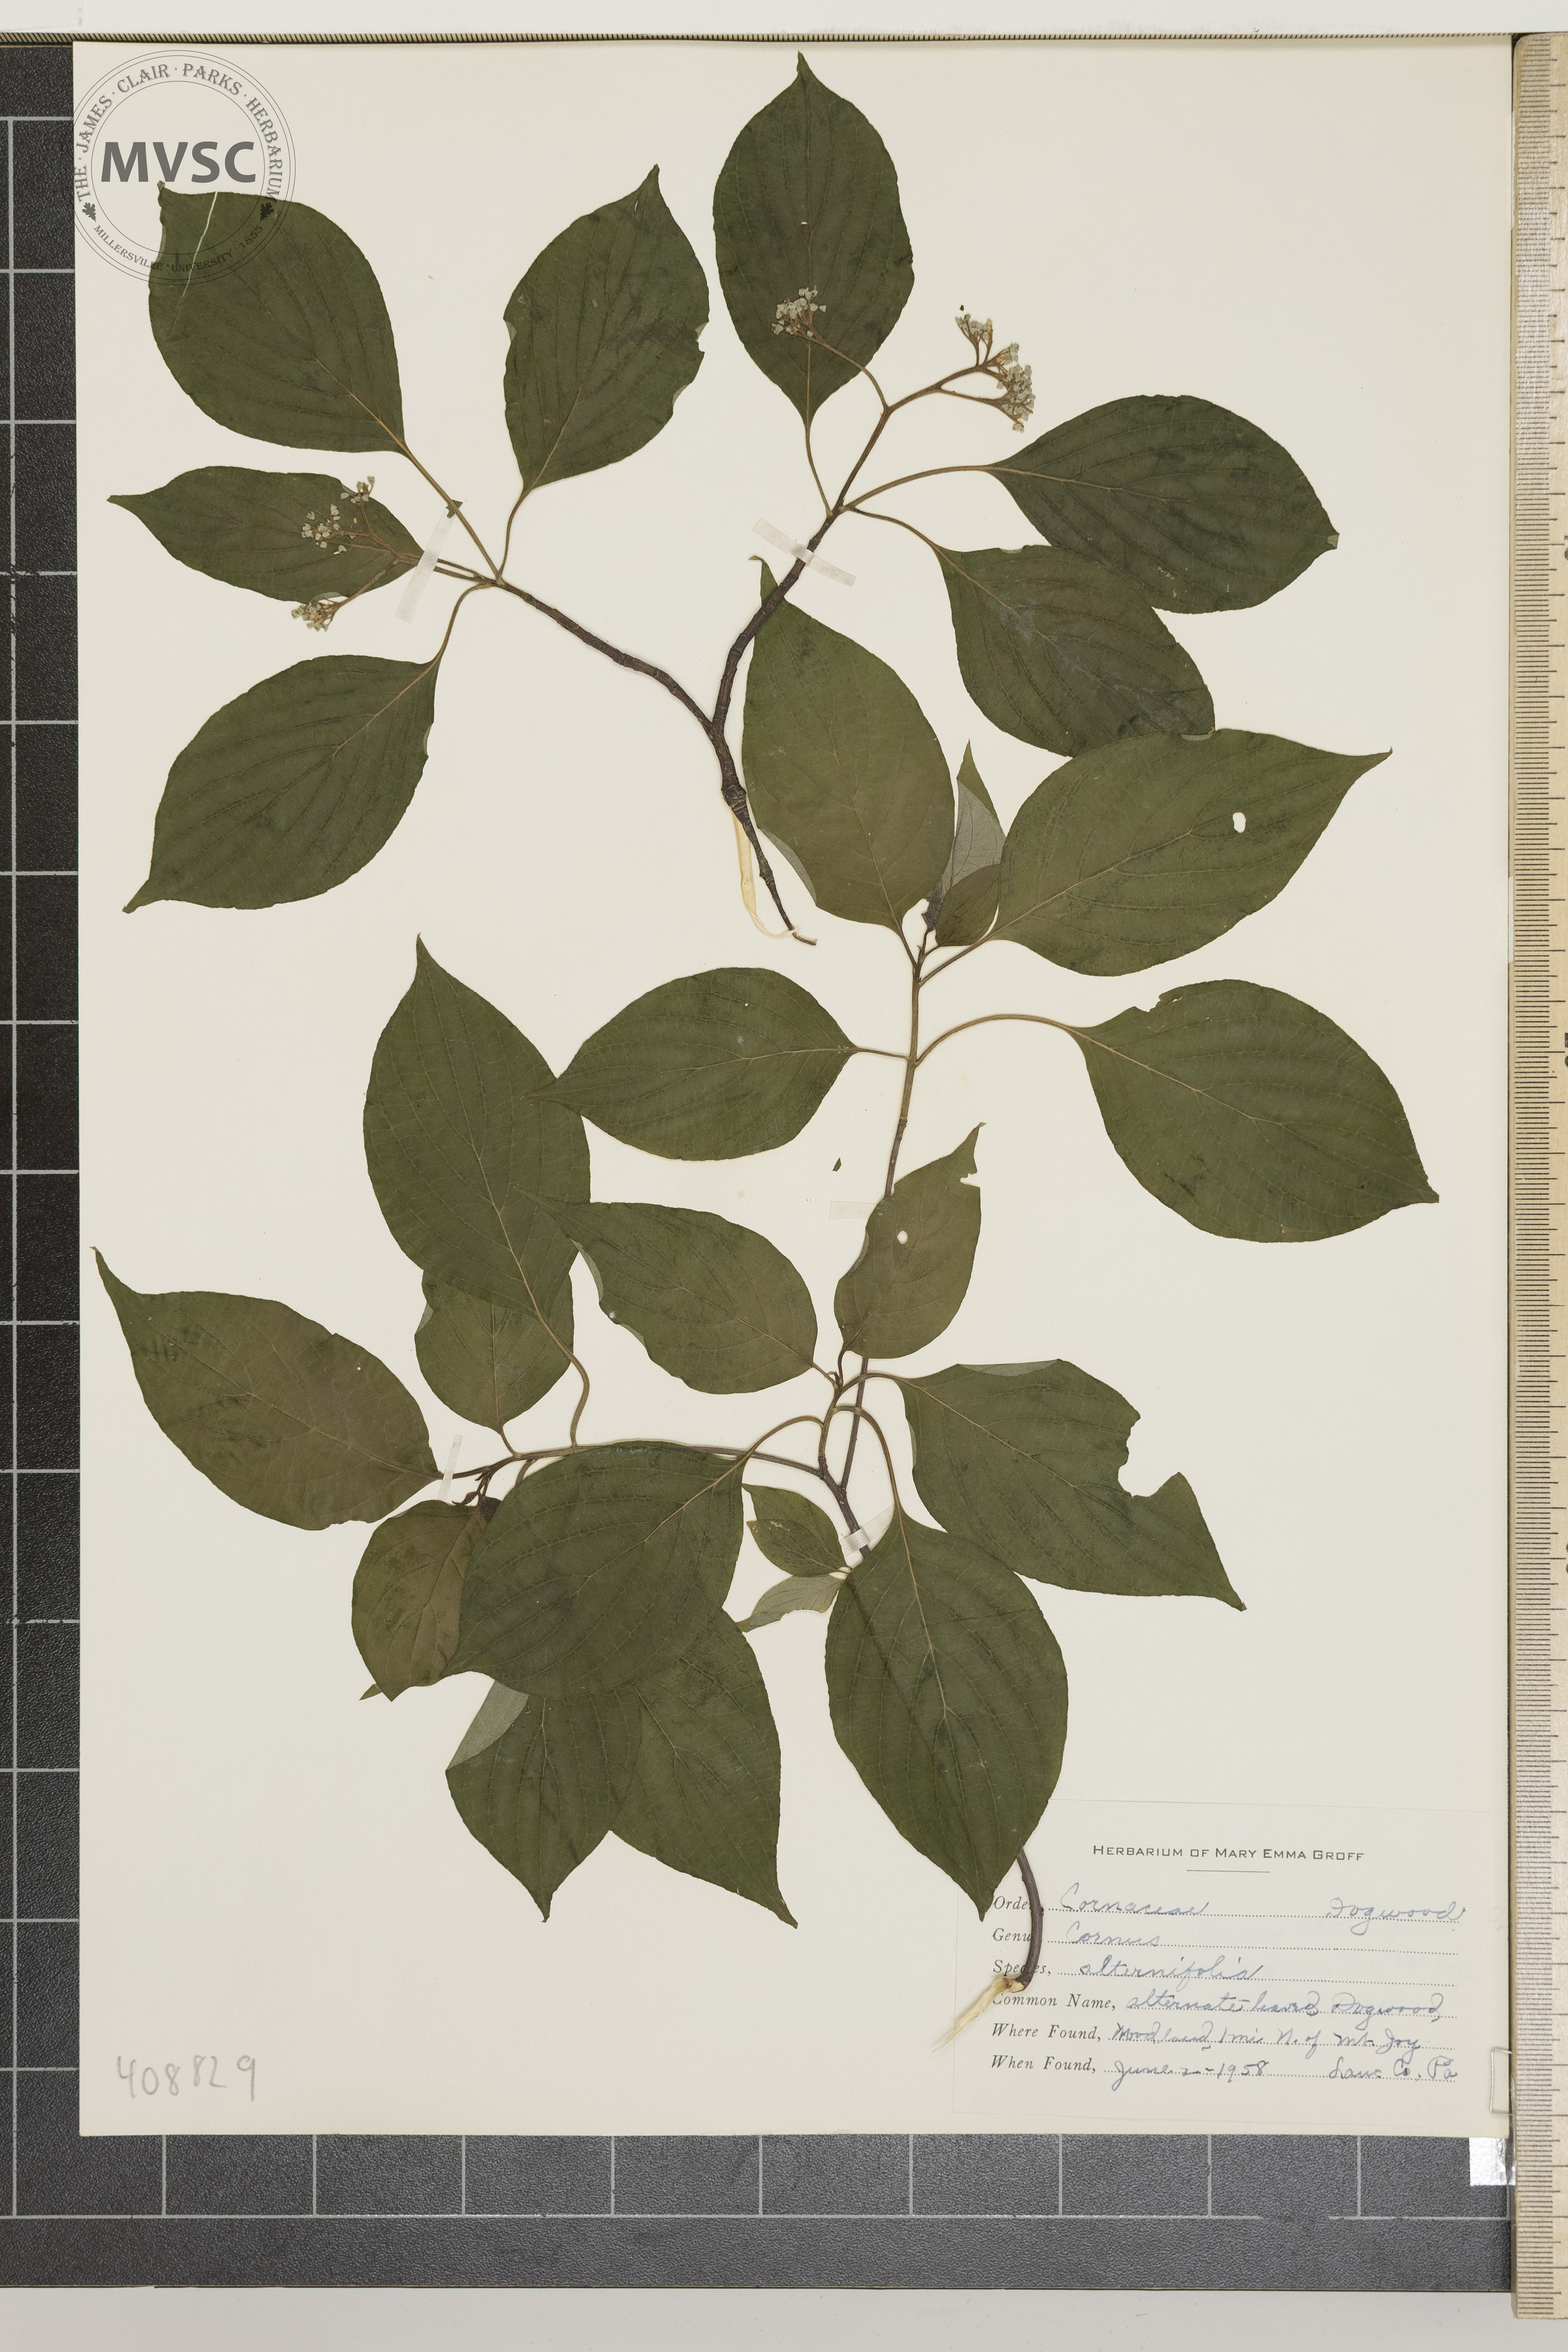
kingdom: Plantae
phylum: Tracheophyta
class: Magnoliopsida
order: Cornales
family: Cornaceae
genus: Cornus
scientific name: Cornus alternifolia
